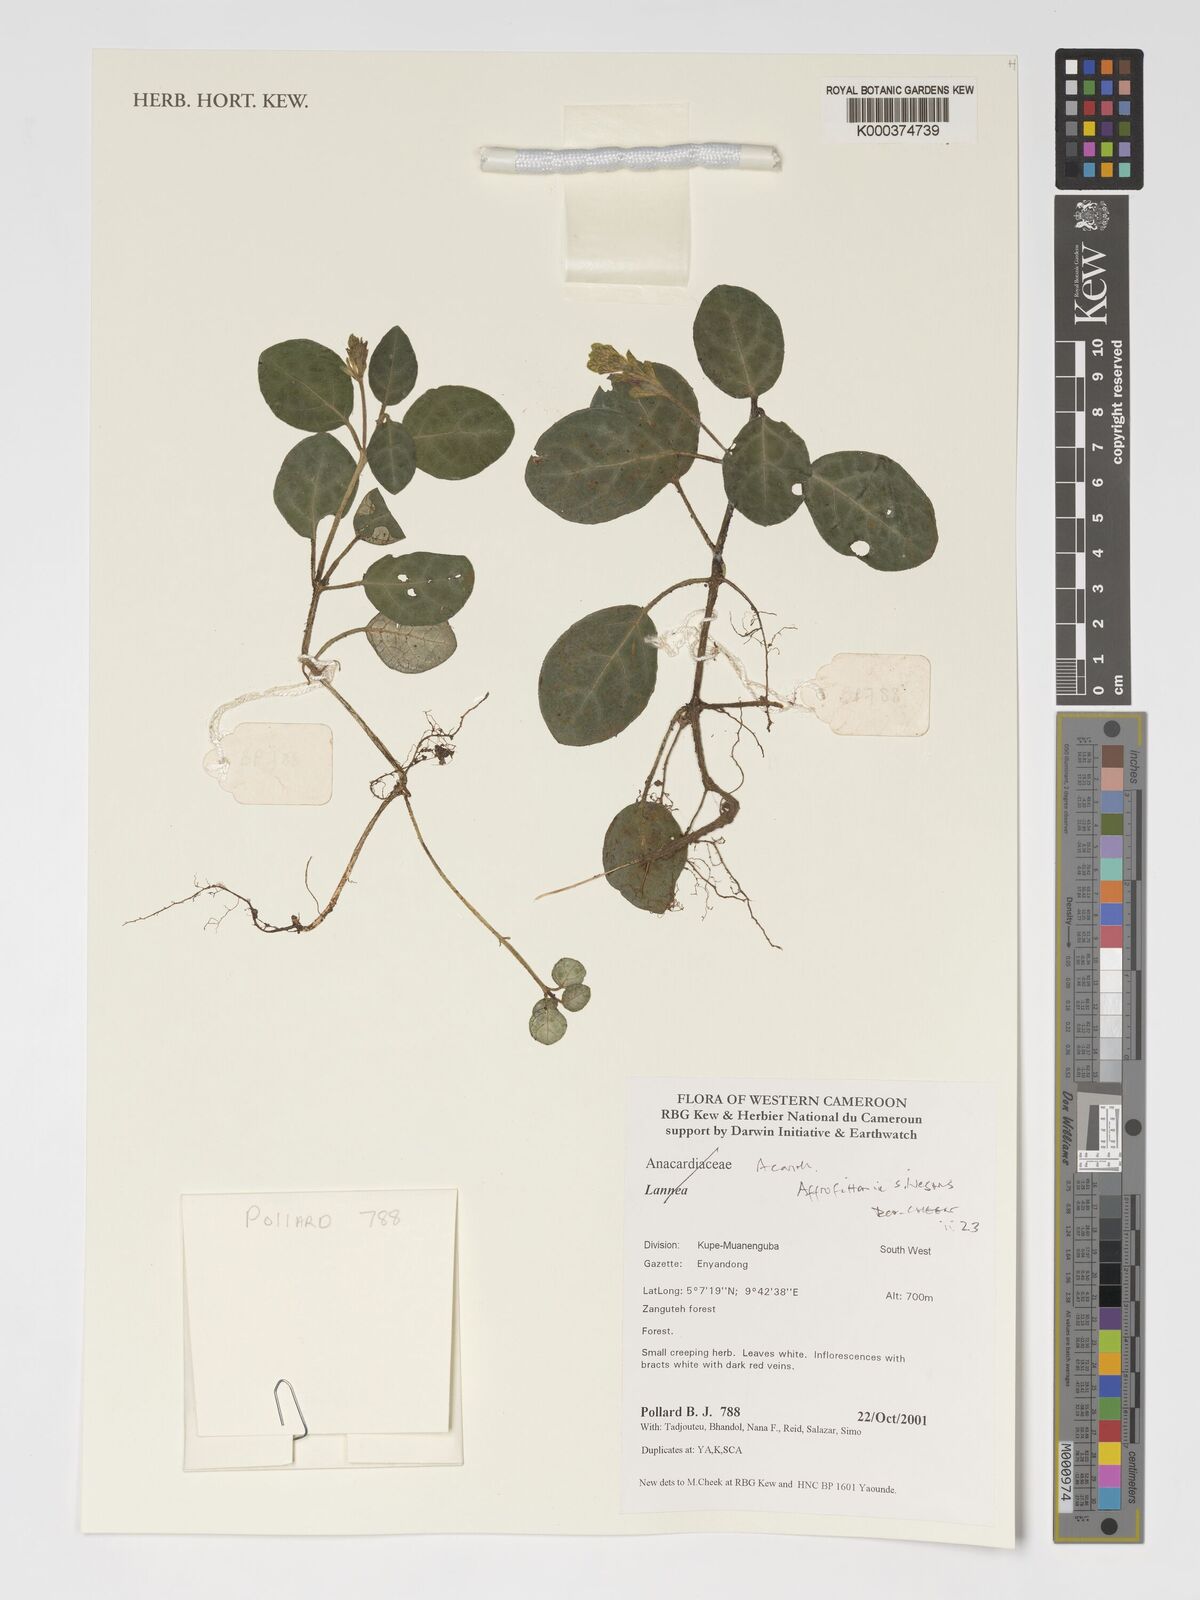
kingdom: Plantae
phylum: Tracheophyta
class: Magnoliopsida
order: Lamiales
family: Acanthaceae
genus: Afrofittonia
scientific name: Afrofittonia silvestris
